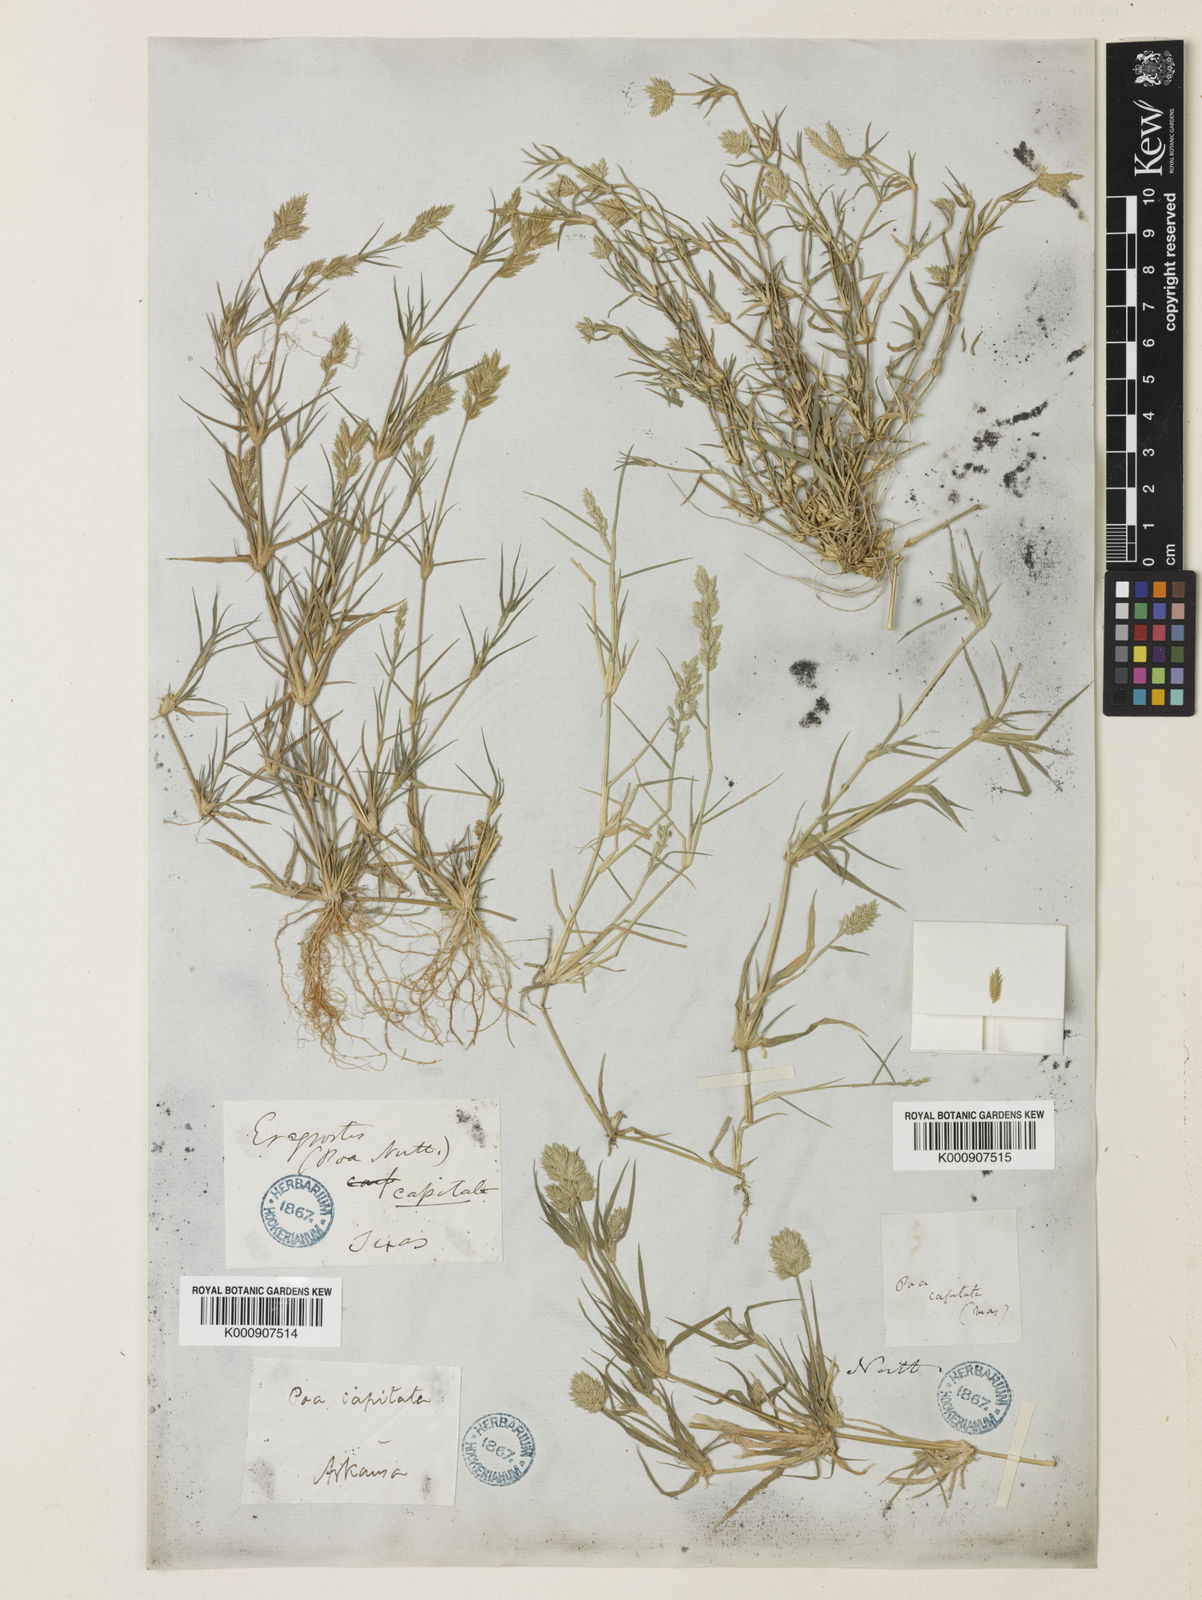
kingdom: Plantae
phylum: Tracheophyta
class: Liliopsida
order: Poales
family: Poaceae
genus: Eragrostis
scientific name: Eragrostis reptans
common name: Creeping love grass
